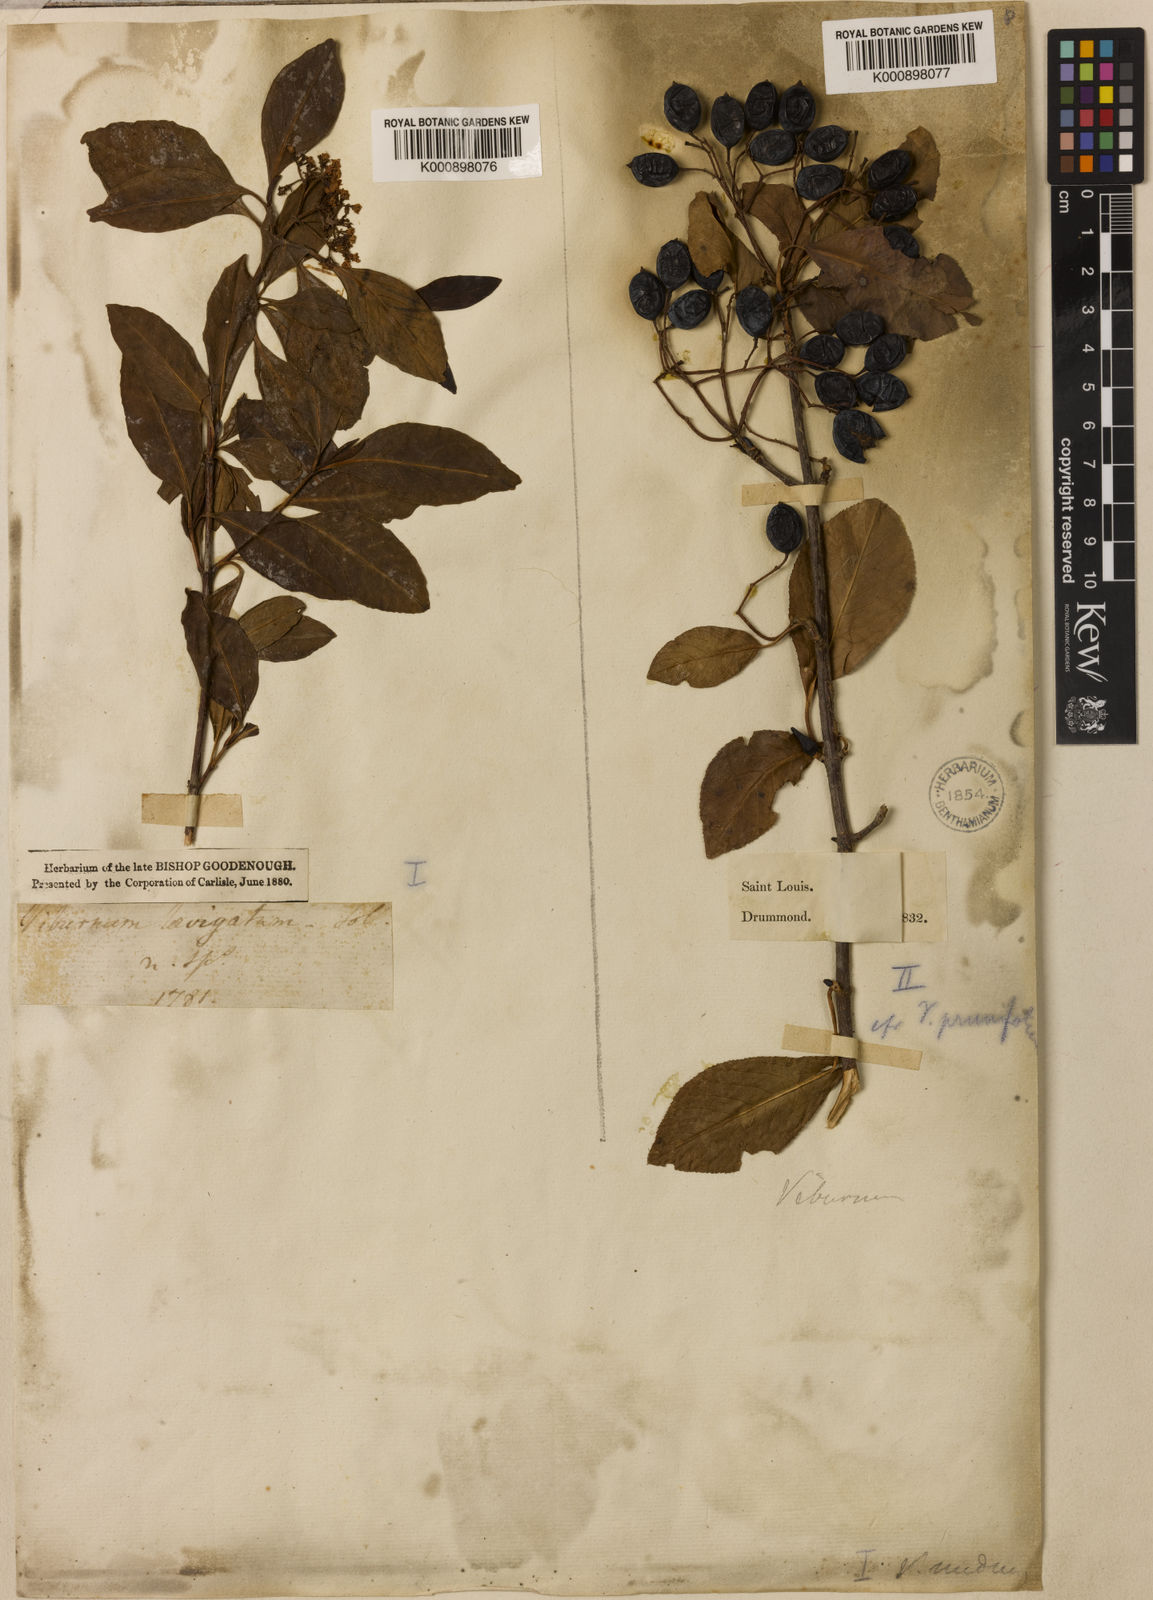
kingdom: Plantae
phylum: Tracheophyta
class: Magnoliopsida
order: Dipsacales
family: Viburnaceae
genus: Viburnum
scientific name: Viburnum nudum
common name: Possum haw
